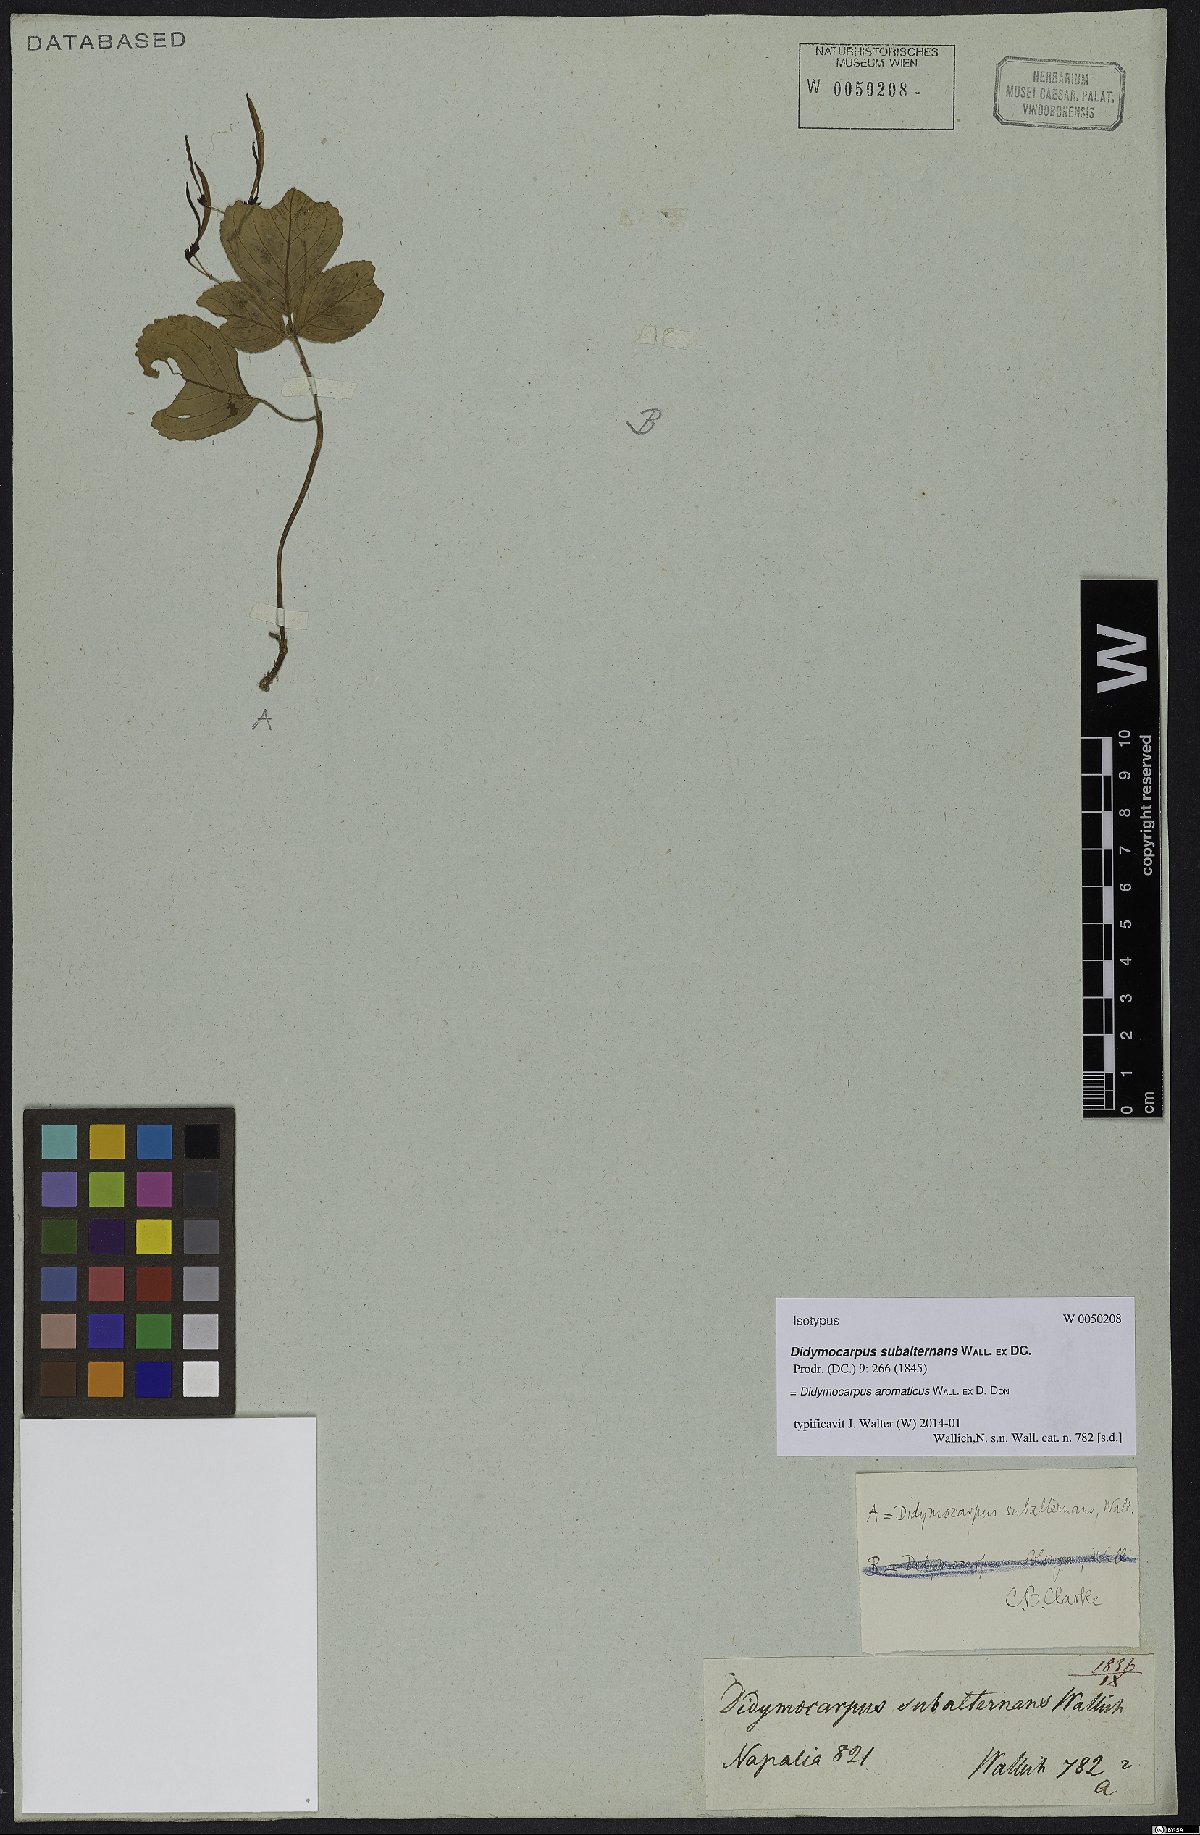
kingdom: Plantae
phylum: Tracheophyta
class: Magnoliopsida
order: Lamiales
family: Gesneriaceae
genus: Didymocarpus
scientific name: Didymocarpus aromaticus
